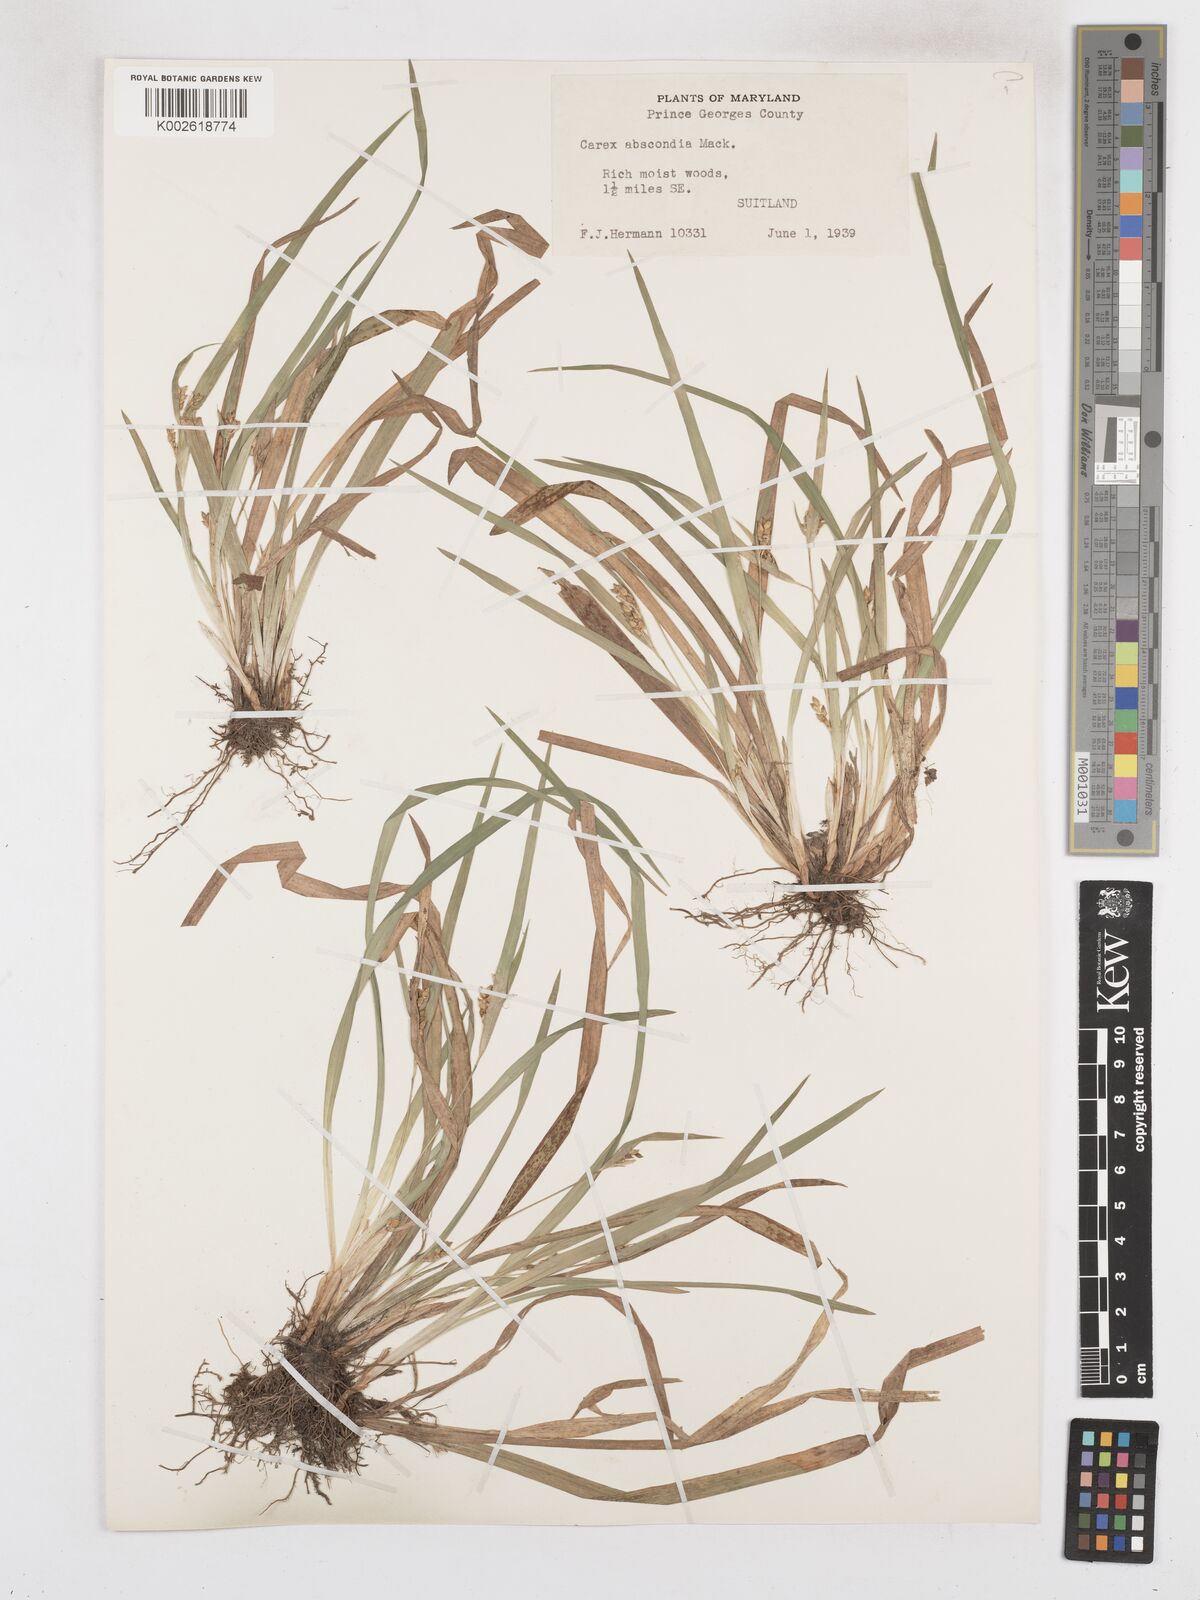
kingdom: Plantae
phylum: Tracheophyta
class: Liliopsida
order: Poales
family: Cyperaceae
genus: Carex
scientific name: Carex abscondita
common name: Thicket sedge
